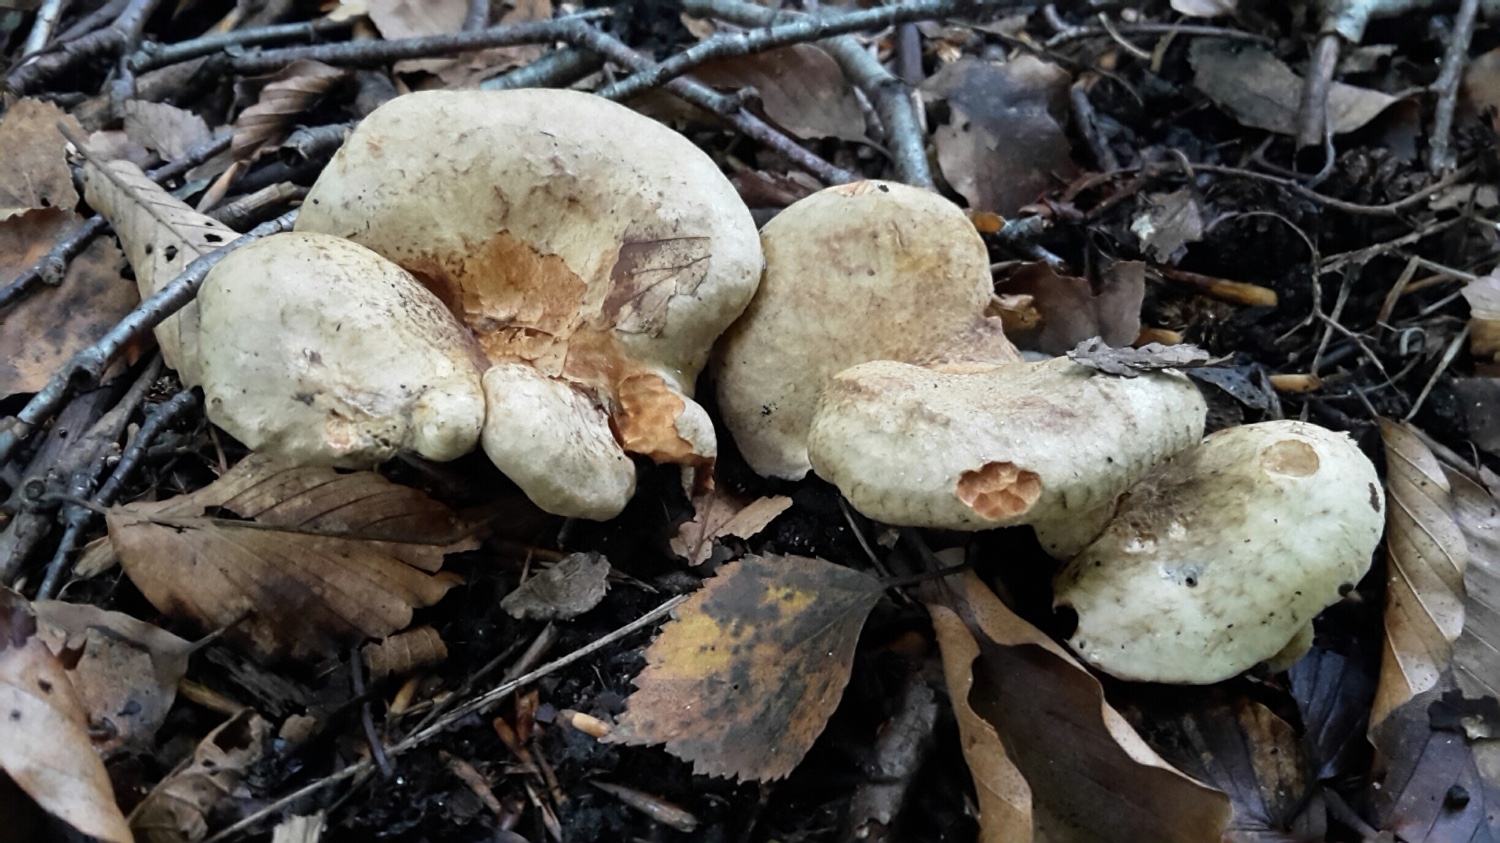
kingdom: Fungi
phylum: Basidiomycota
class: Agaricomycetes
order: Boletales
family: Paxillaceae
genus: Paxillus
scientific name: Paxillus rubicundulus
